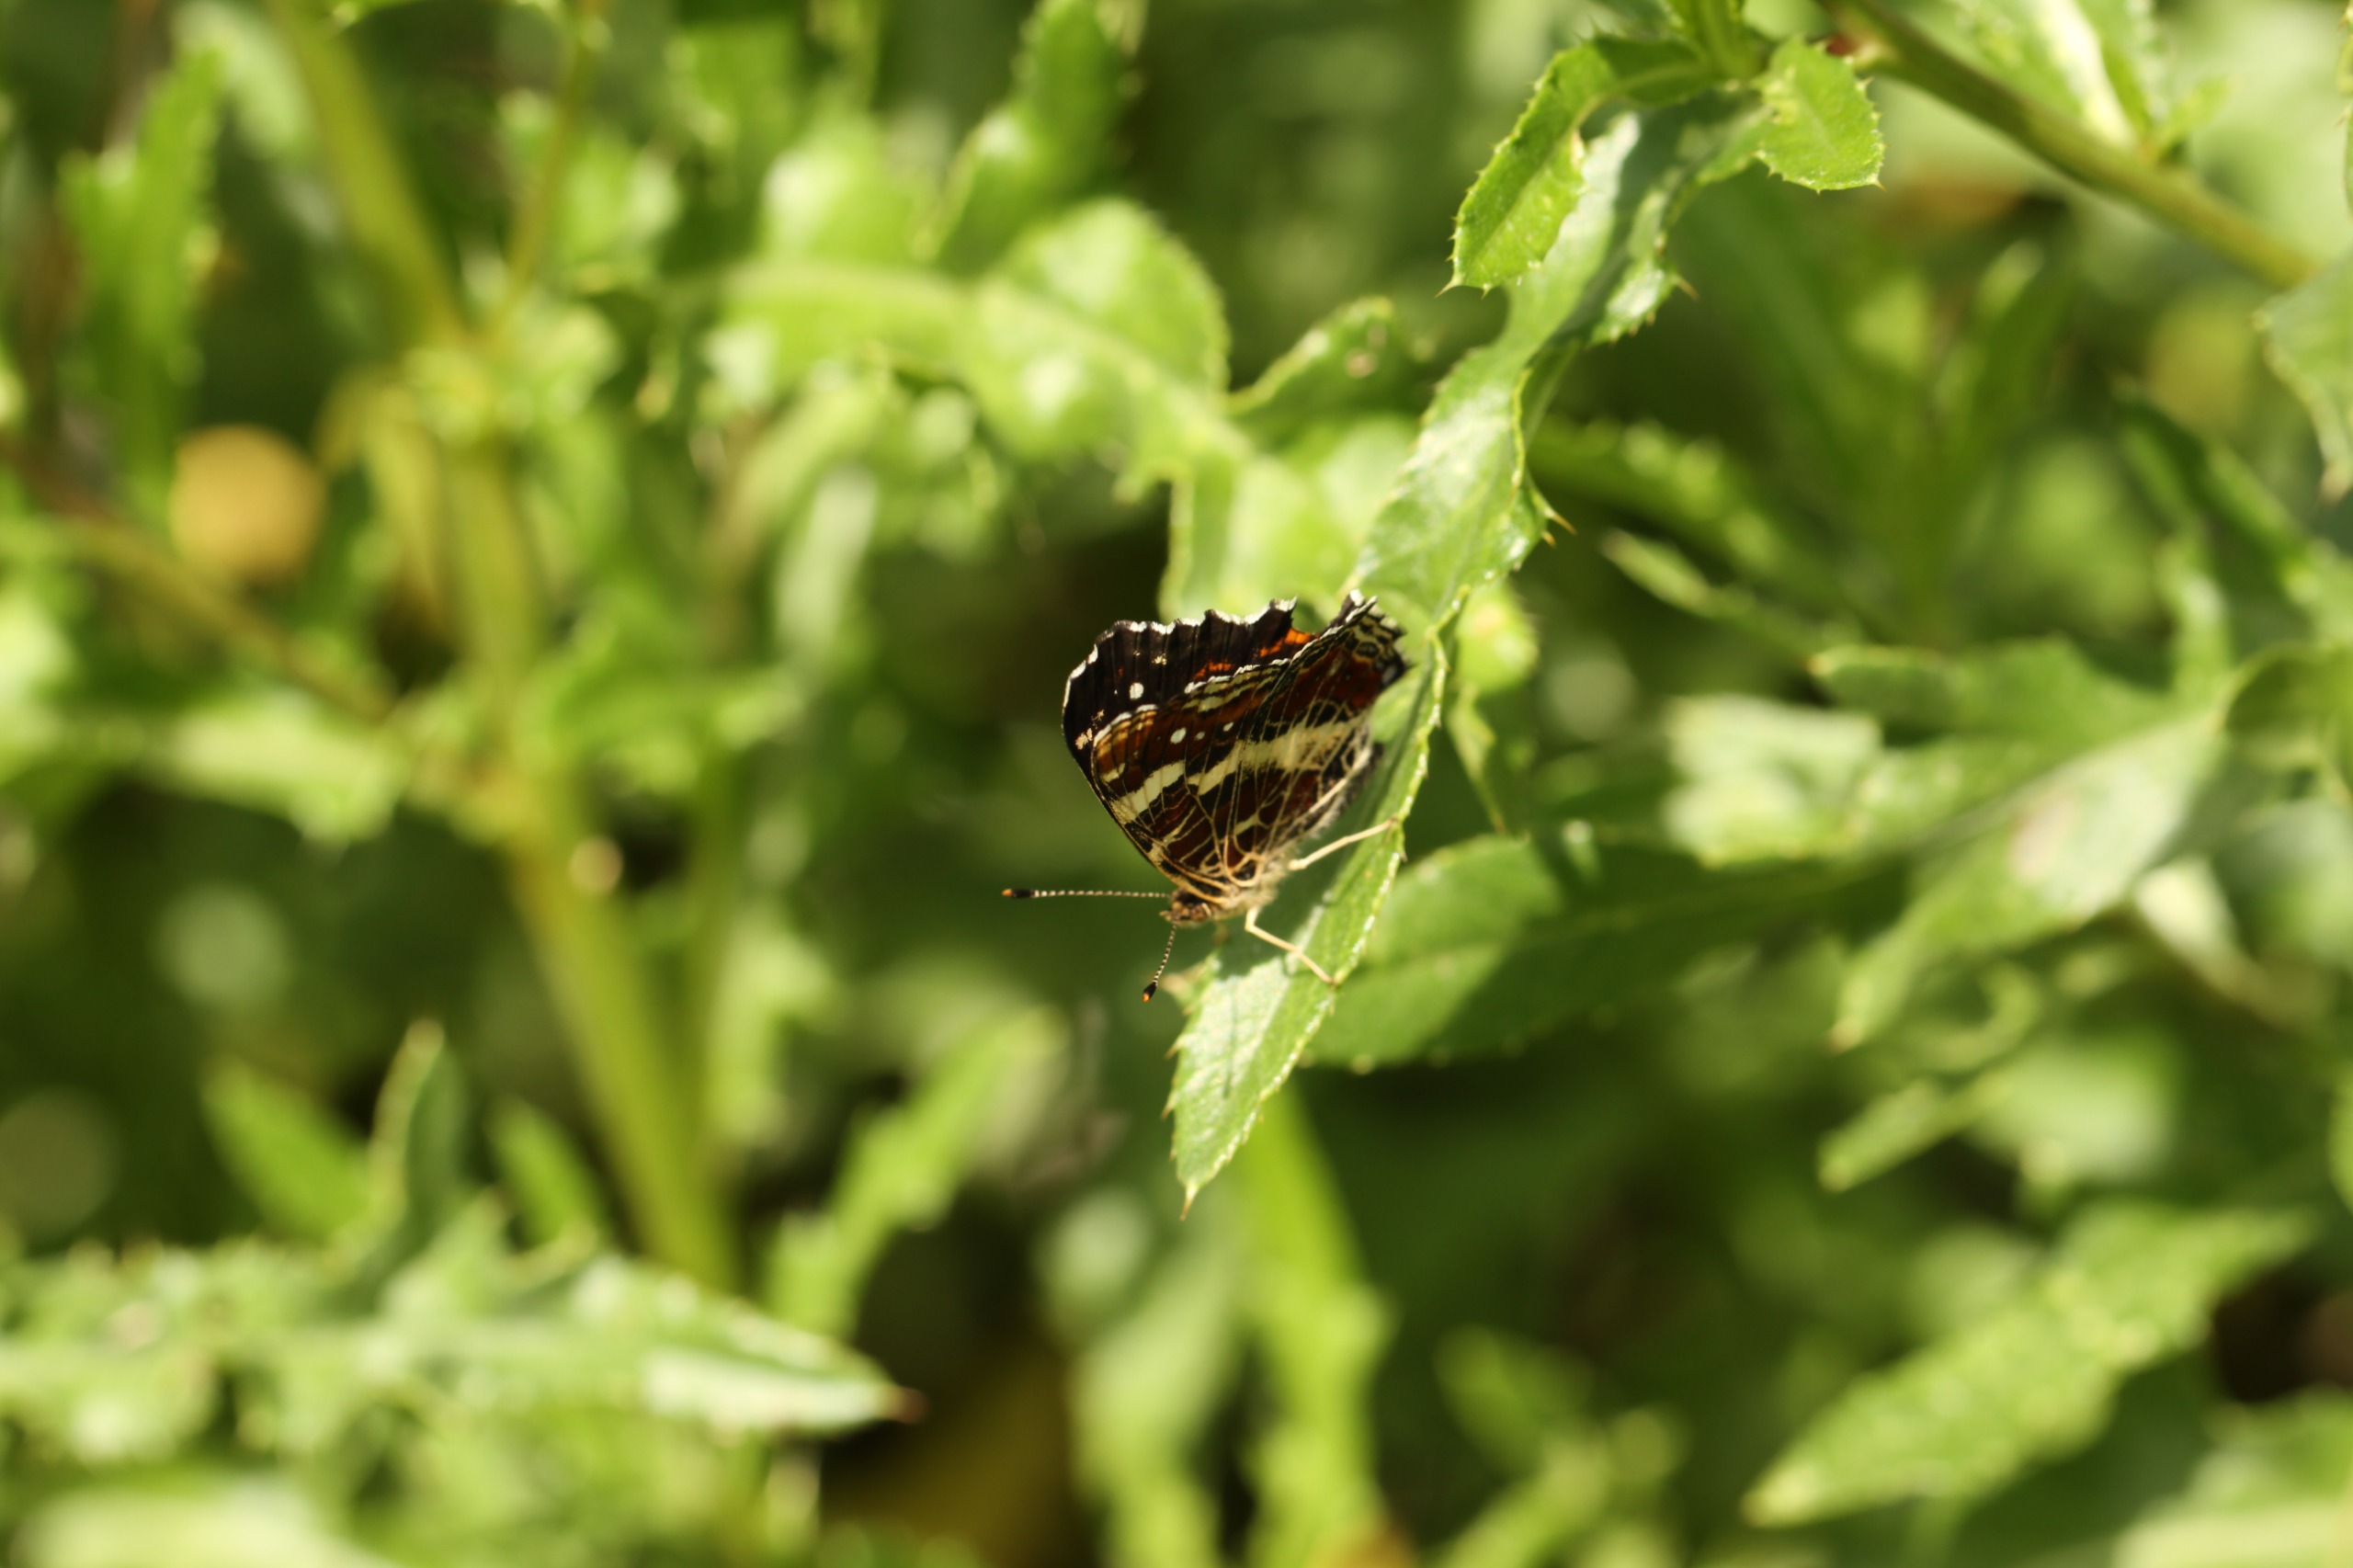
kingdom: Animalia
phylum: Arthropoda
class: Insecta
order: Lepidoptera
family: Nymphalidae
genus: Araschnia
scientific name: Araschnia levana
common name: Nældesommerfugl
